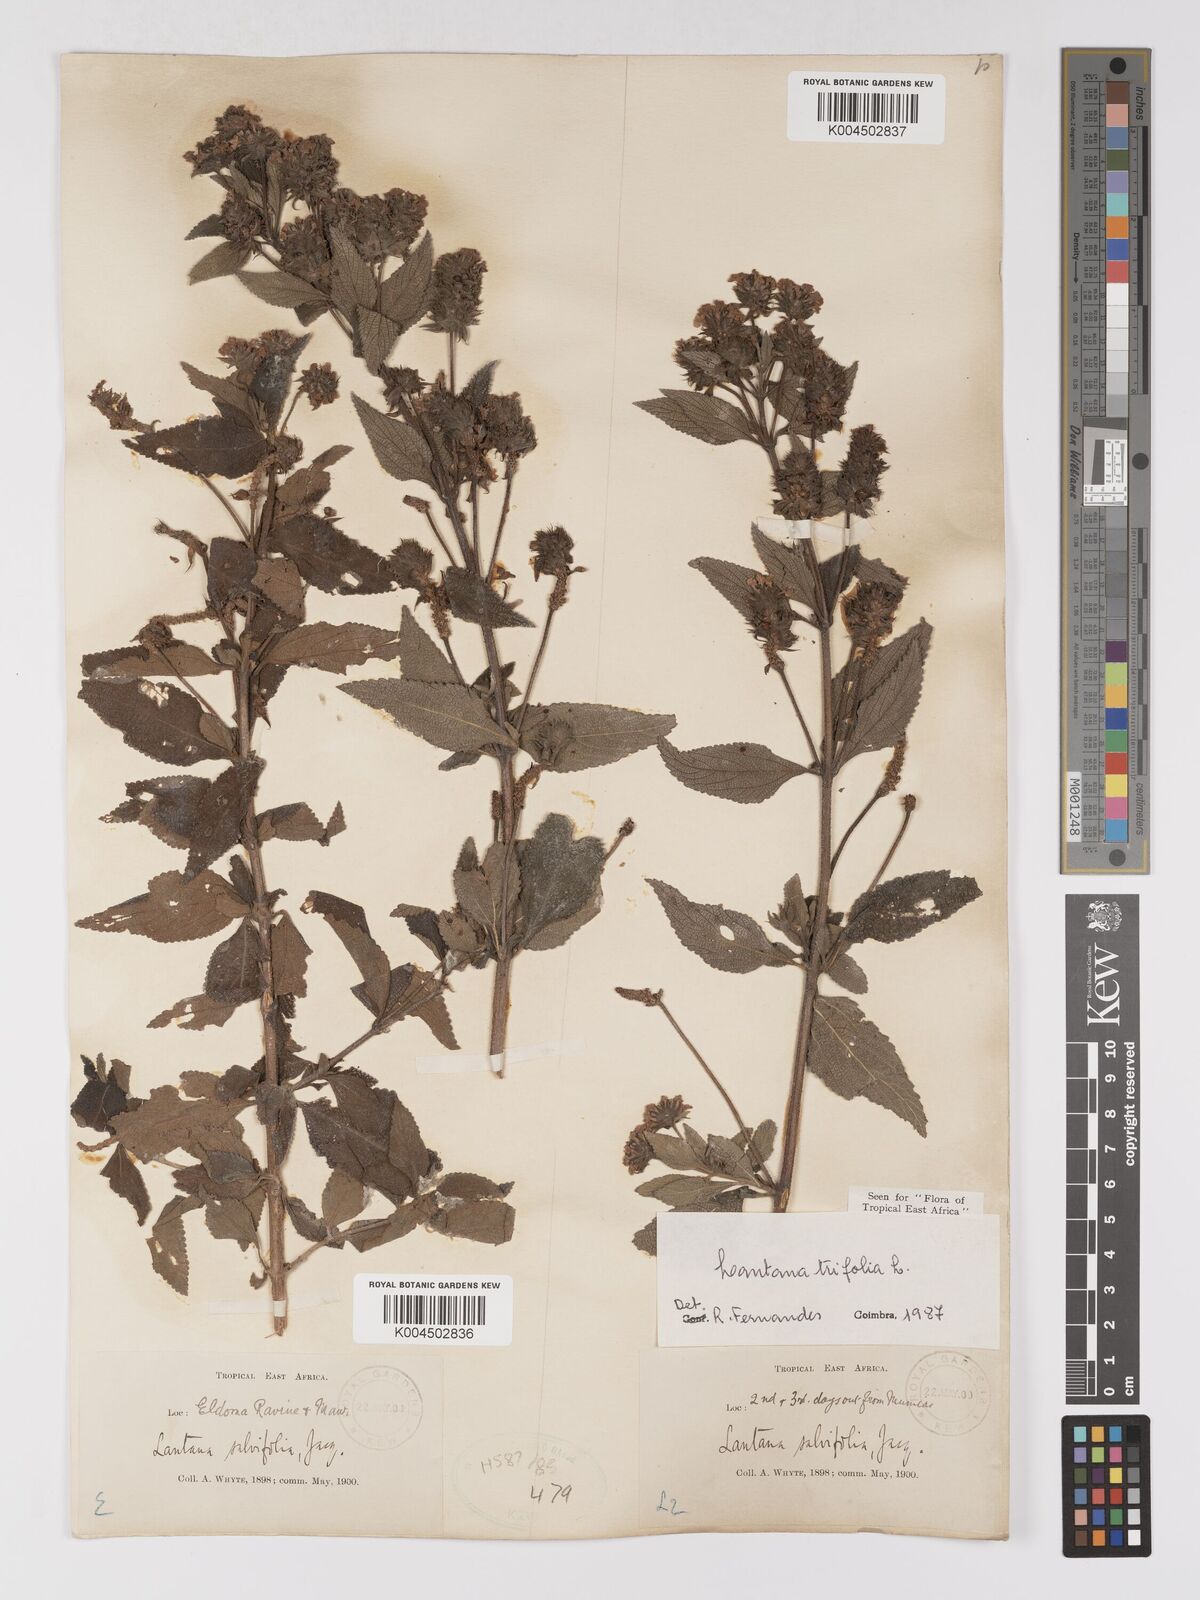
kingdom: Plantae
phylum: Tracheophyta
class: Magnoliopsida
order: Lamiales
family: Verbenaceae
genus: Lantana
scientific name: Lantana trifolia
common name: Sweet-sage
